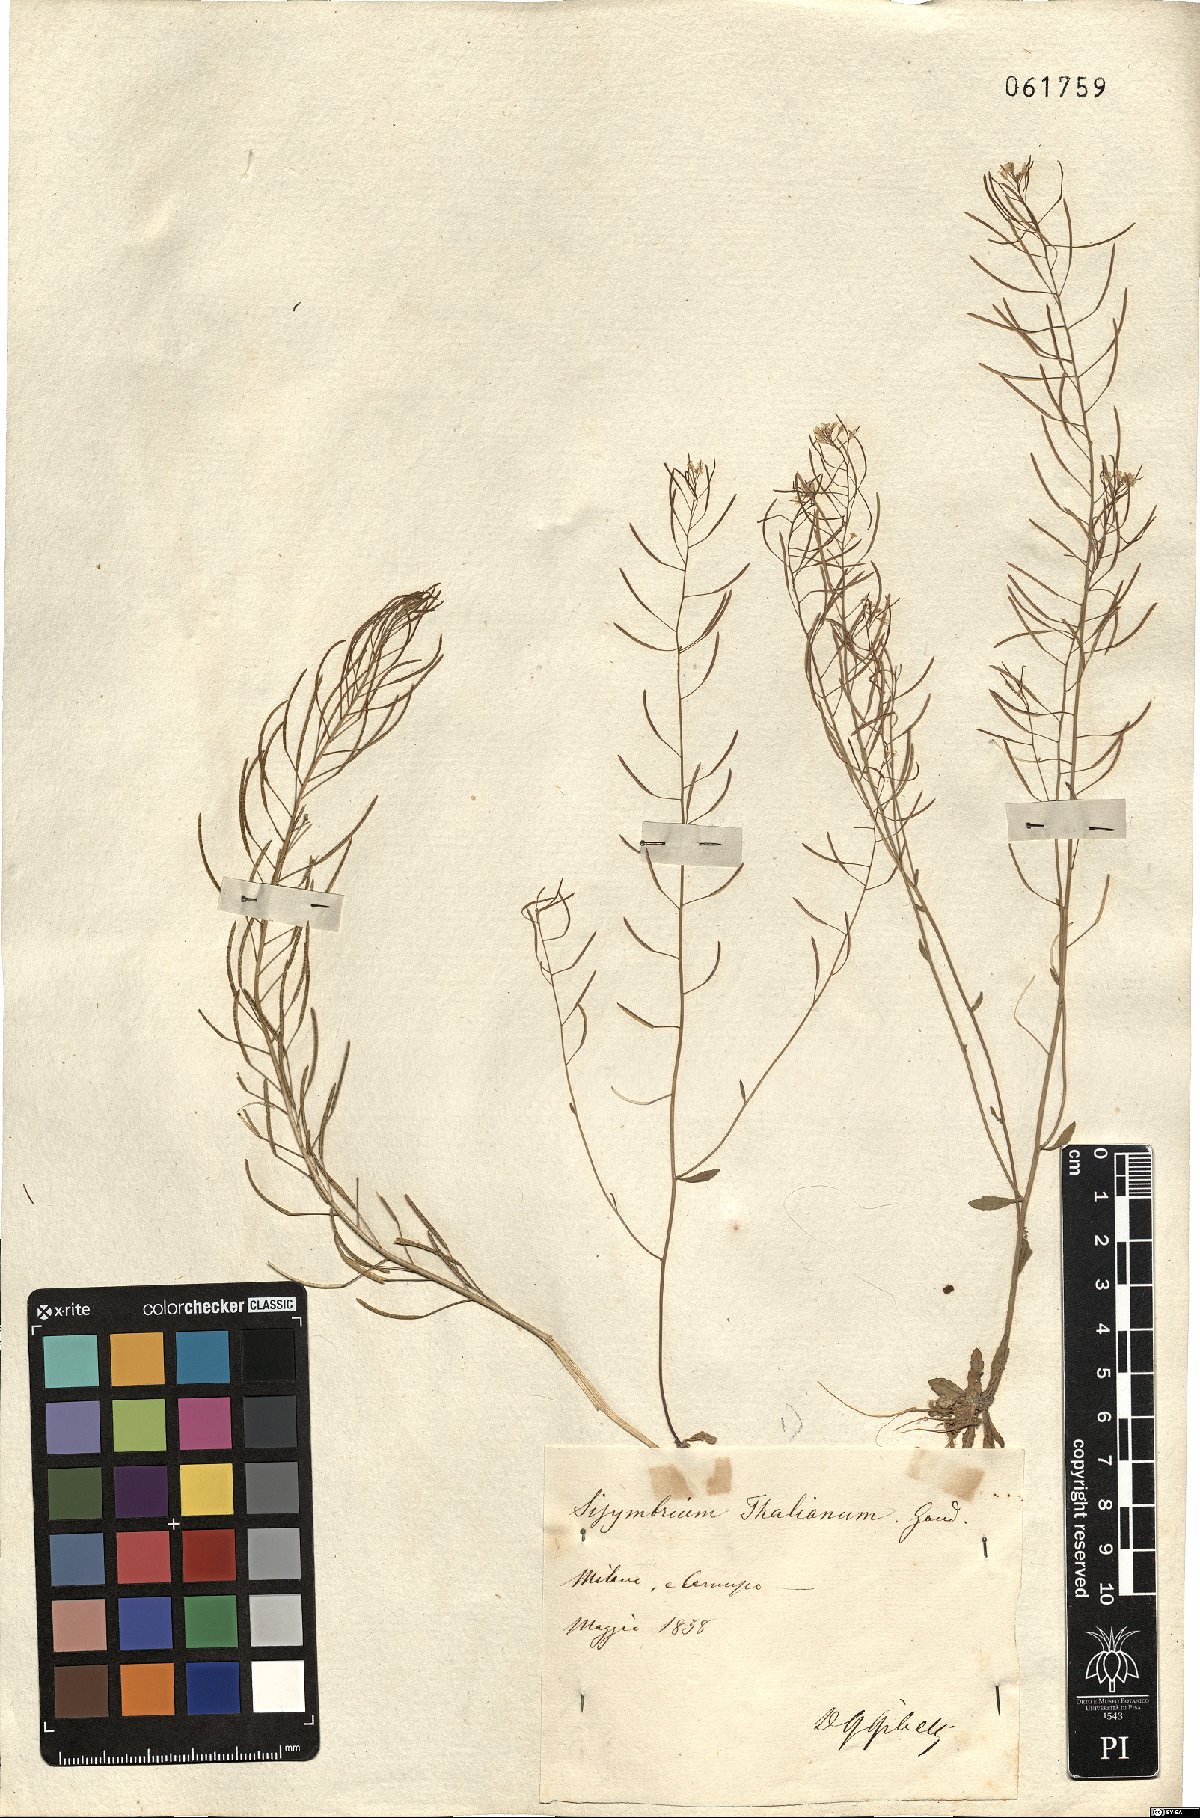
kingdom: Plantae
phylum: Tracheophyta
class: Magnoliopsida
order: Brassicales
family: Brassicaceae
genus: Arabidopsis
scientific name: Arabidopsis thaliana
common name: Thale cress
